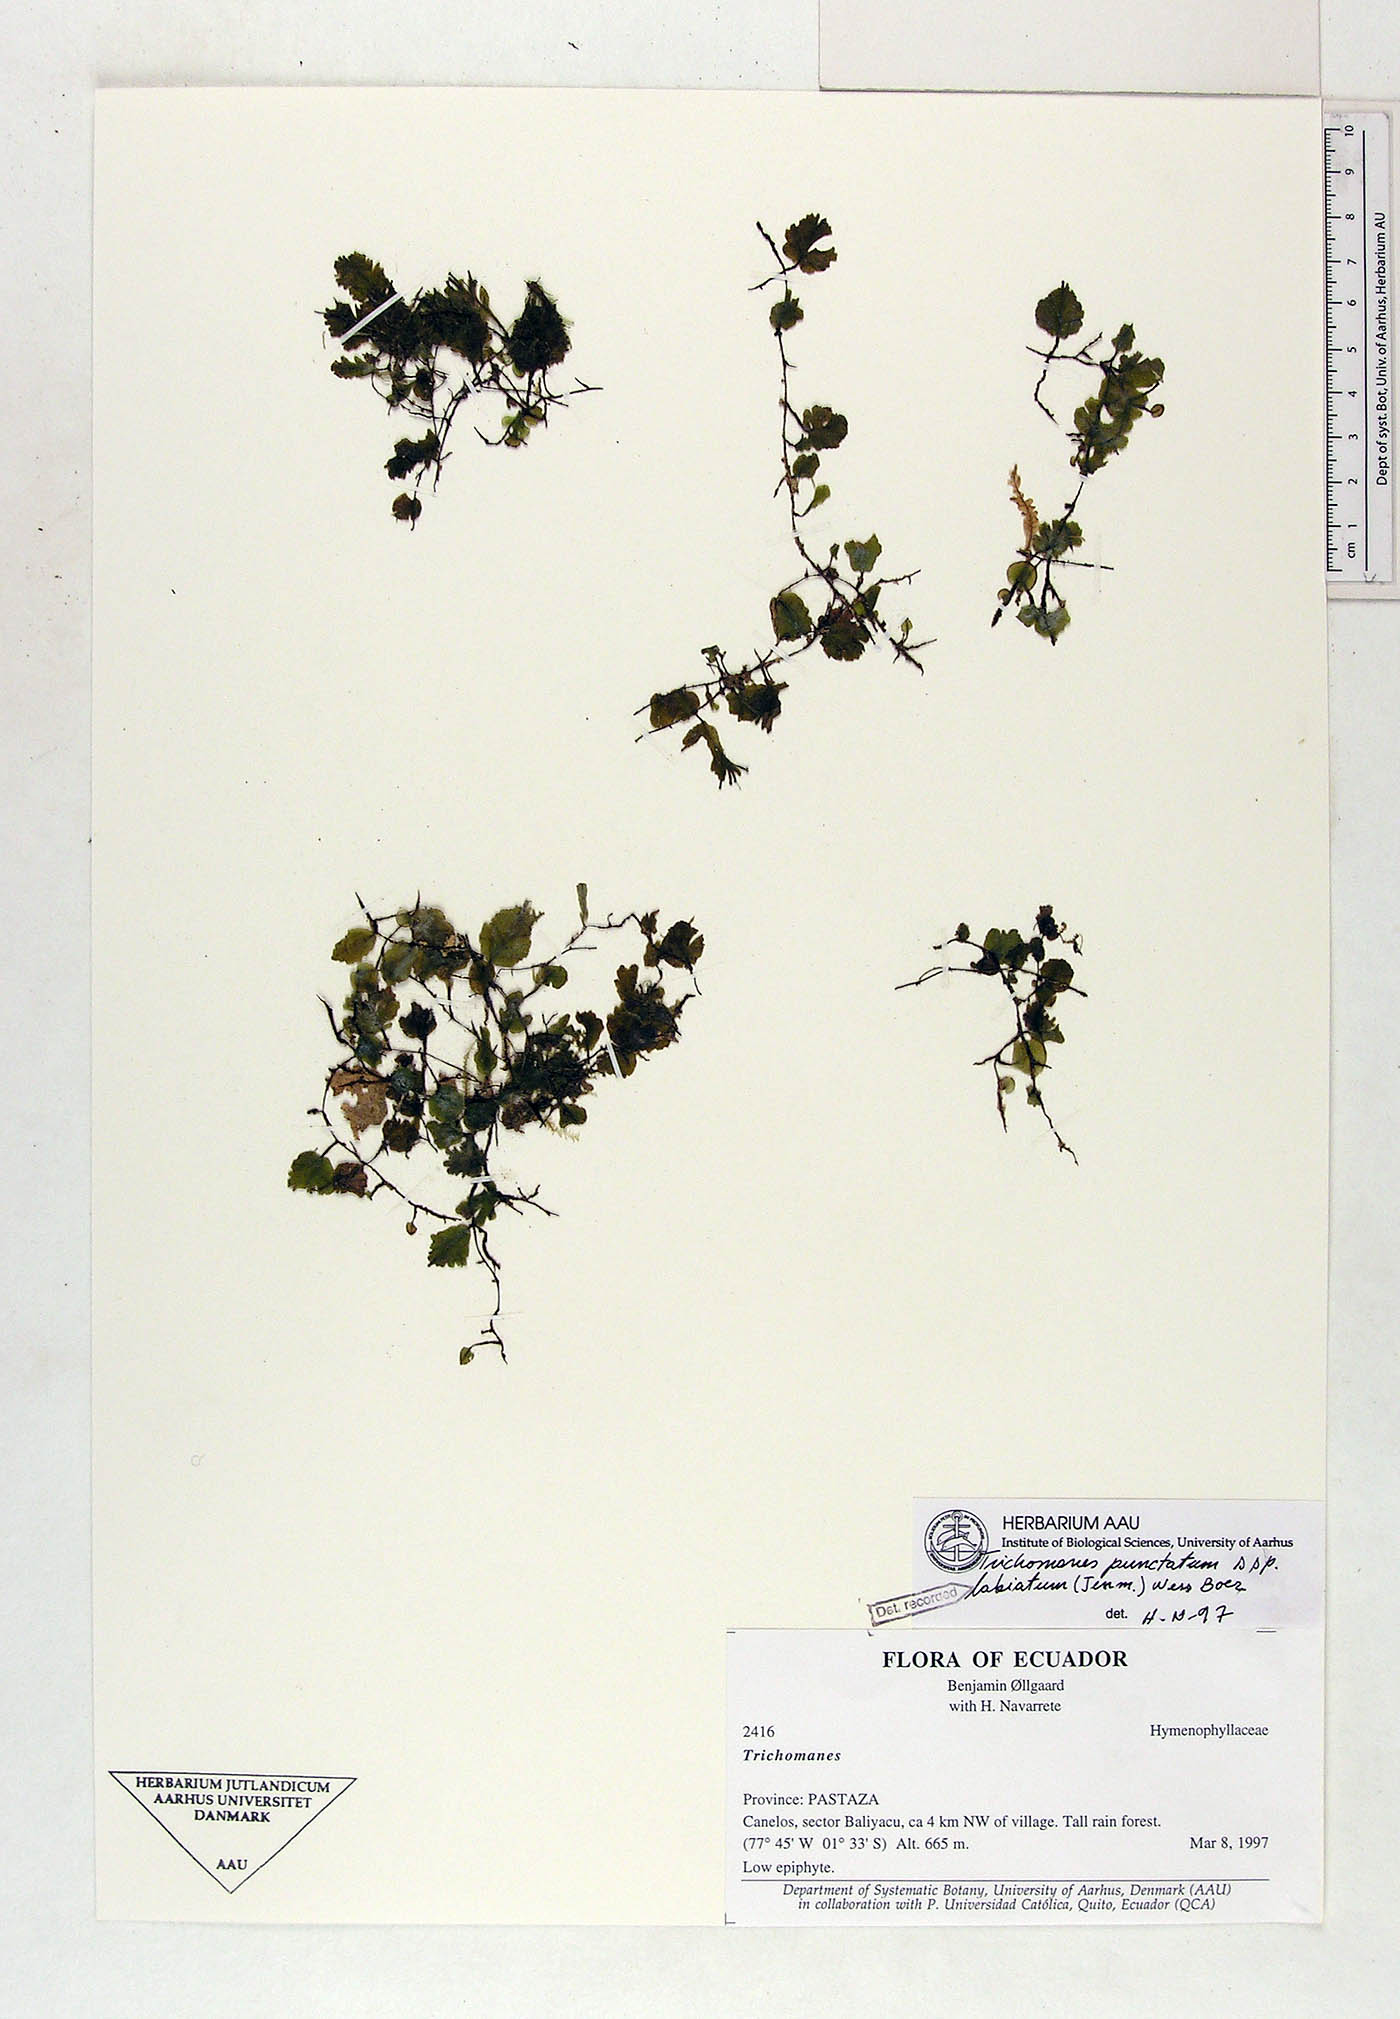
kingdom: Plantae
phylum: Tracheophyta
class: Polypodiopsida
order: Hymenophyllales
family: Hymenophyllaceae
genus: Didymoglossum
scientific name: Didymoglossum punctatum
